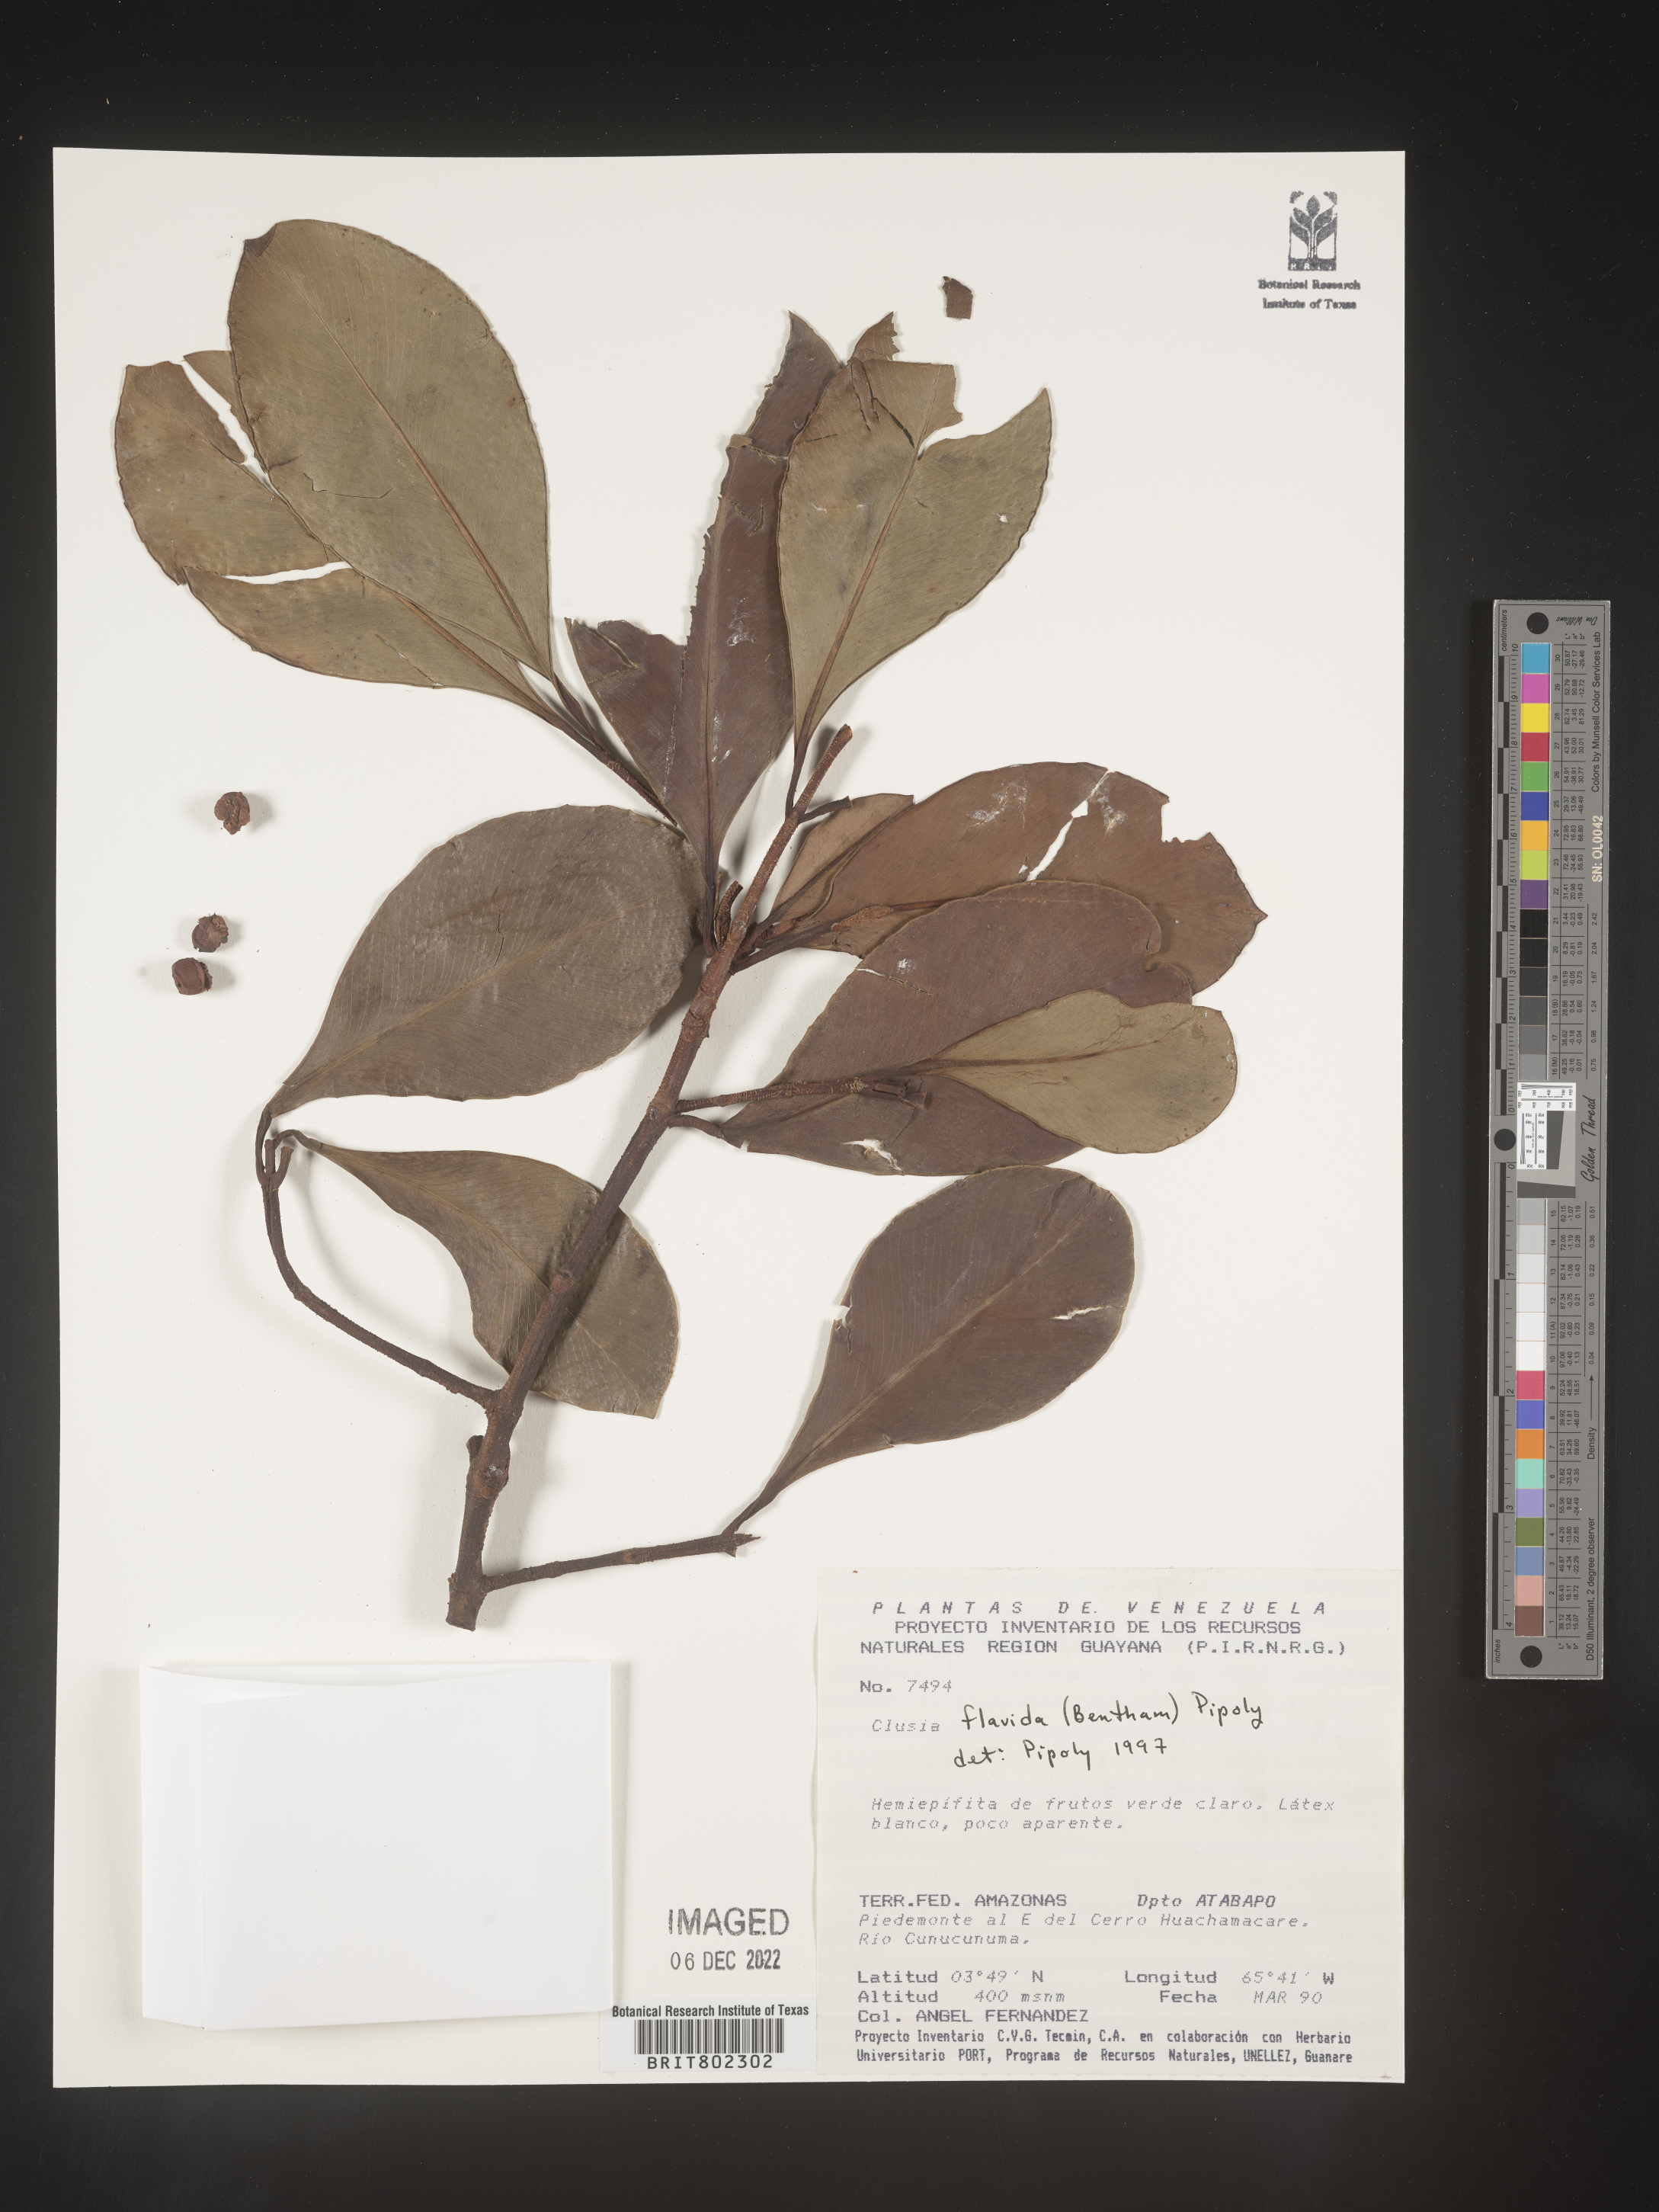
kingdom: Plantae
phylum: Tracheophyta
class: Magnoliopsida
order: Malpighiales
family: Clusiaceae
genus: Clusia
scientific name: Clusia flavida
